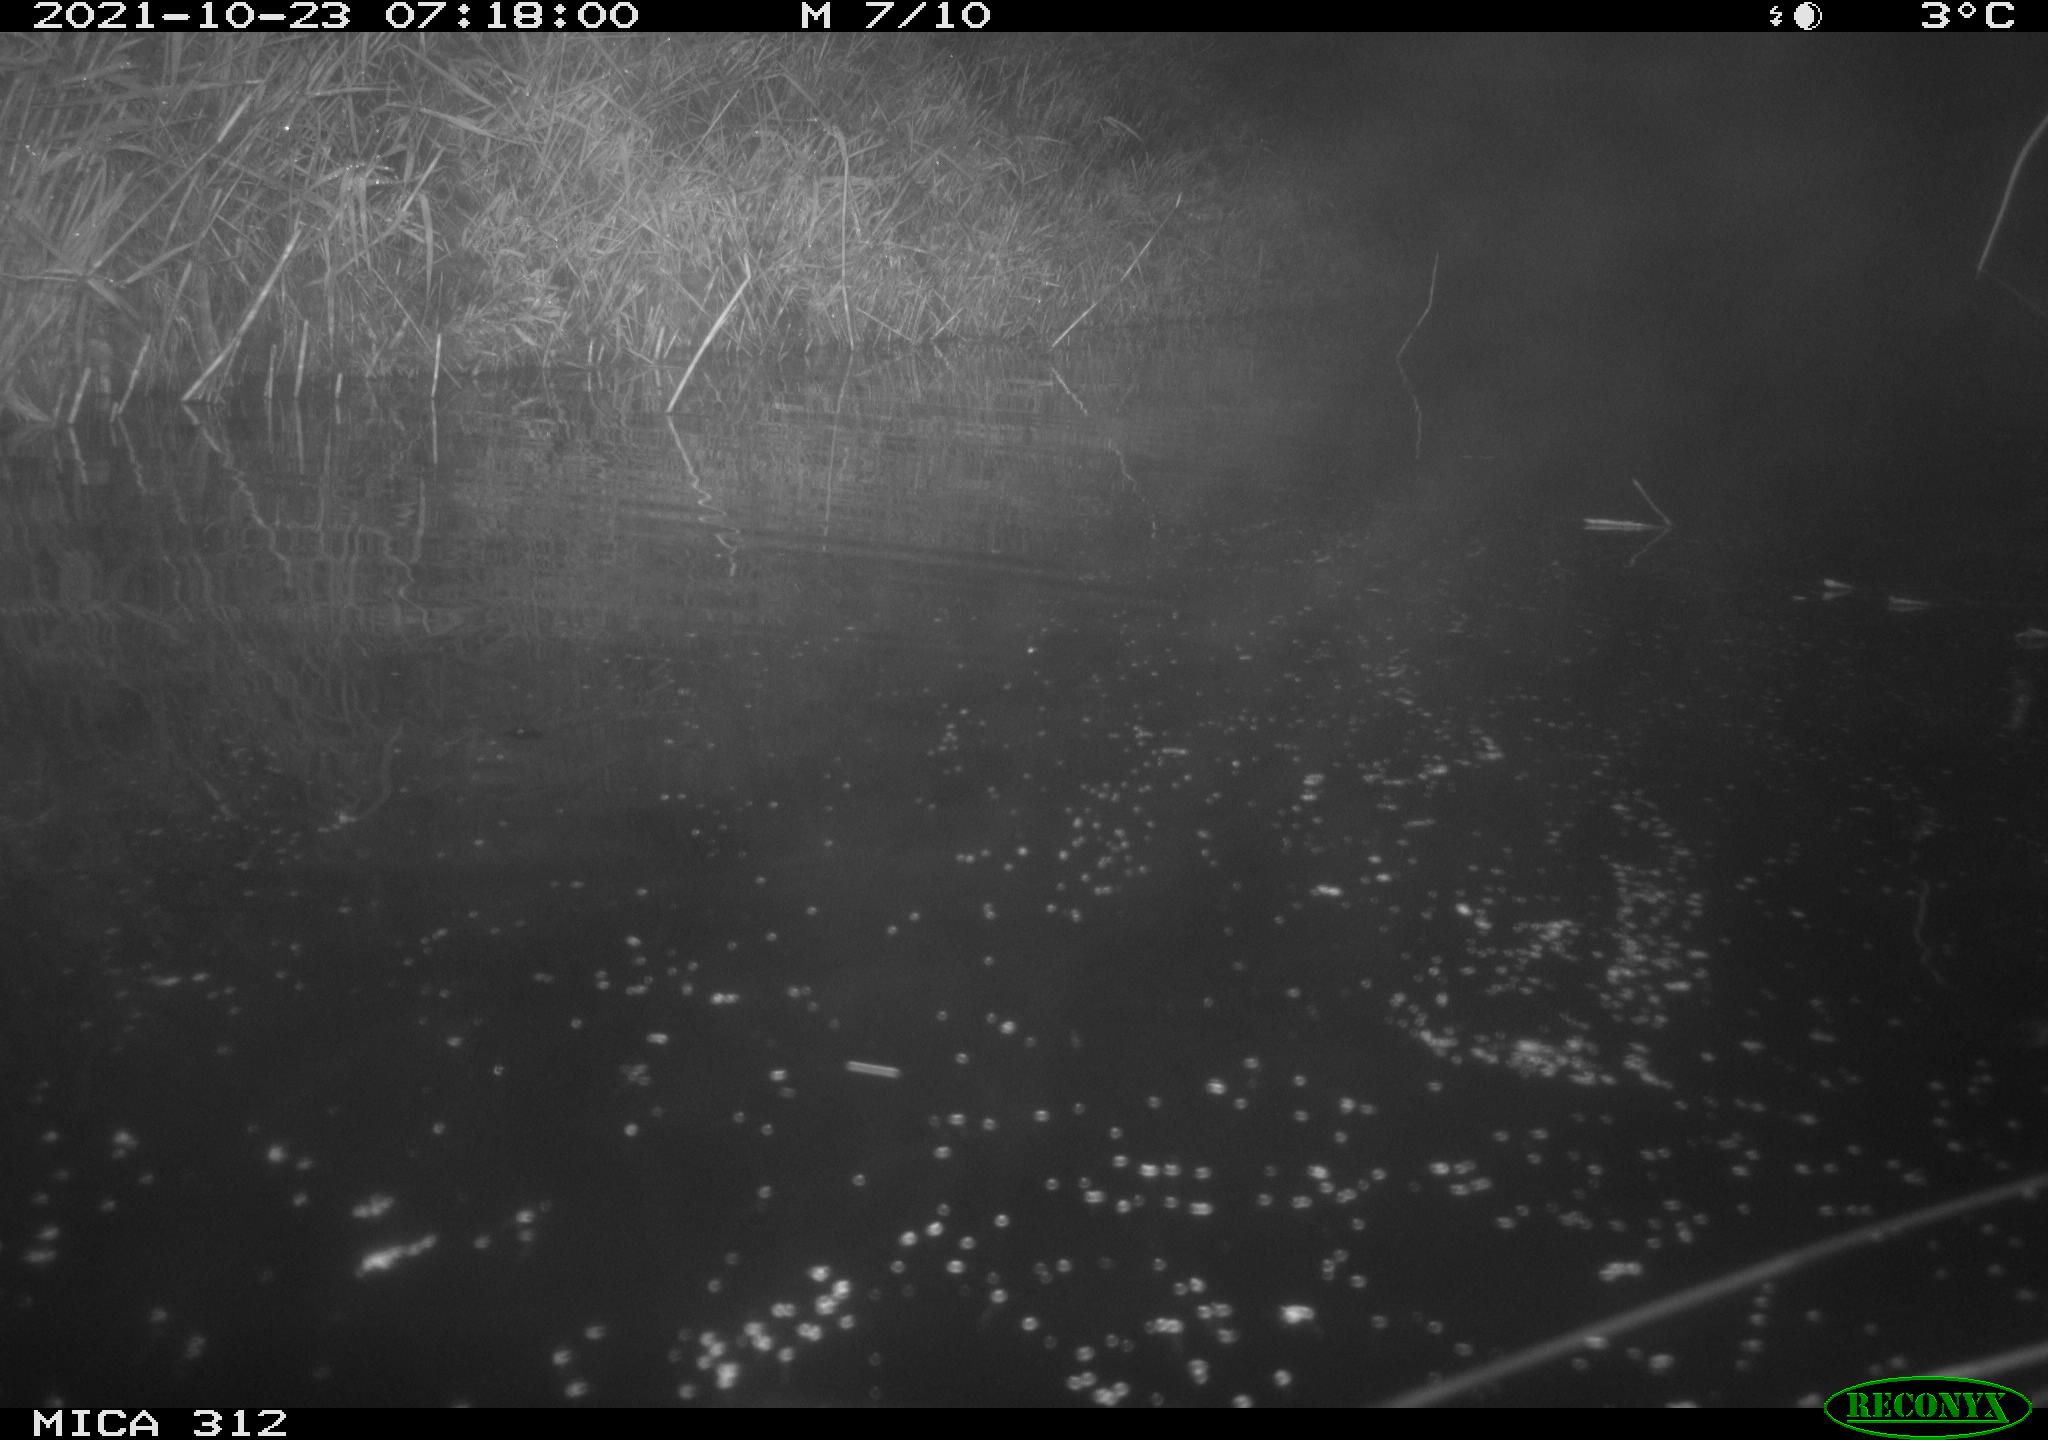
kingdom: Animalia
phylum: Chordata
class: Mammalia
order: Rodentia
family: Muridae
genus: Rattus
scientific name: Rattus norvegicus
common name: Brown rat
